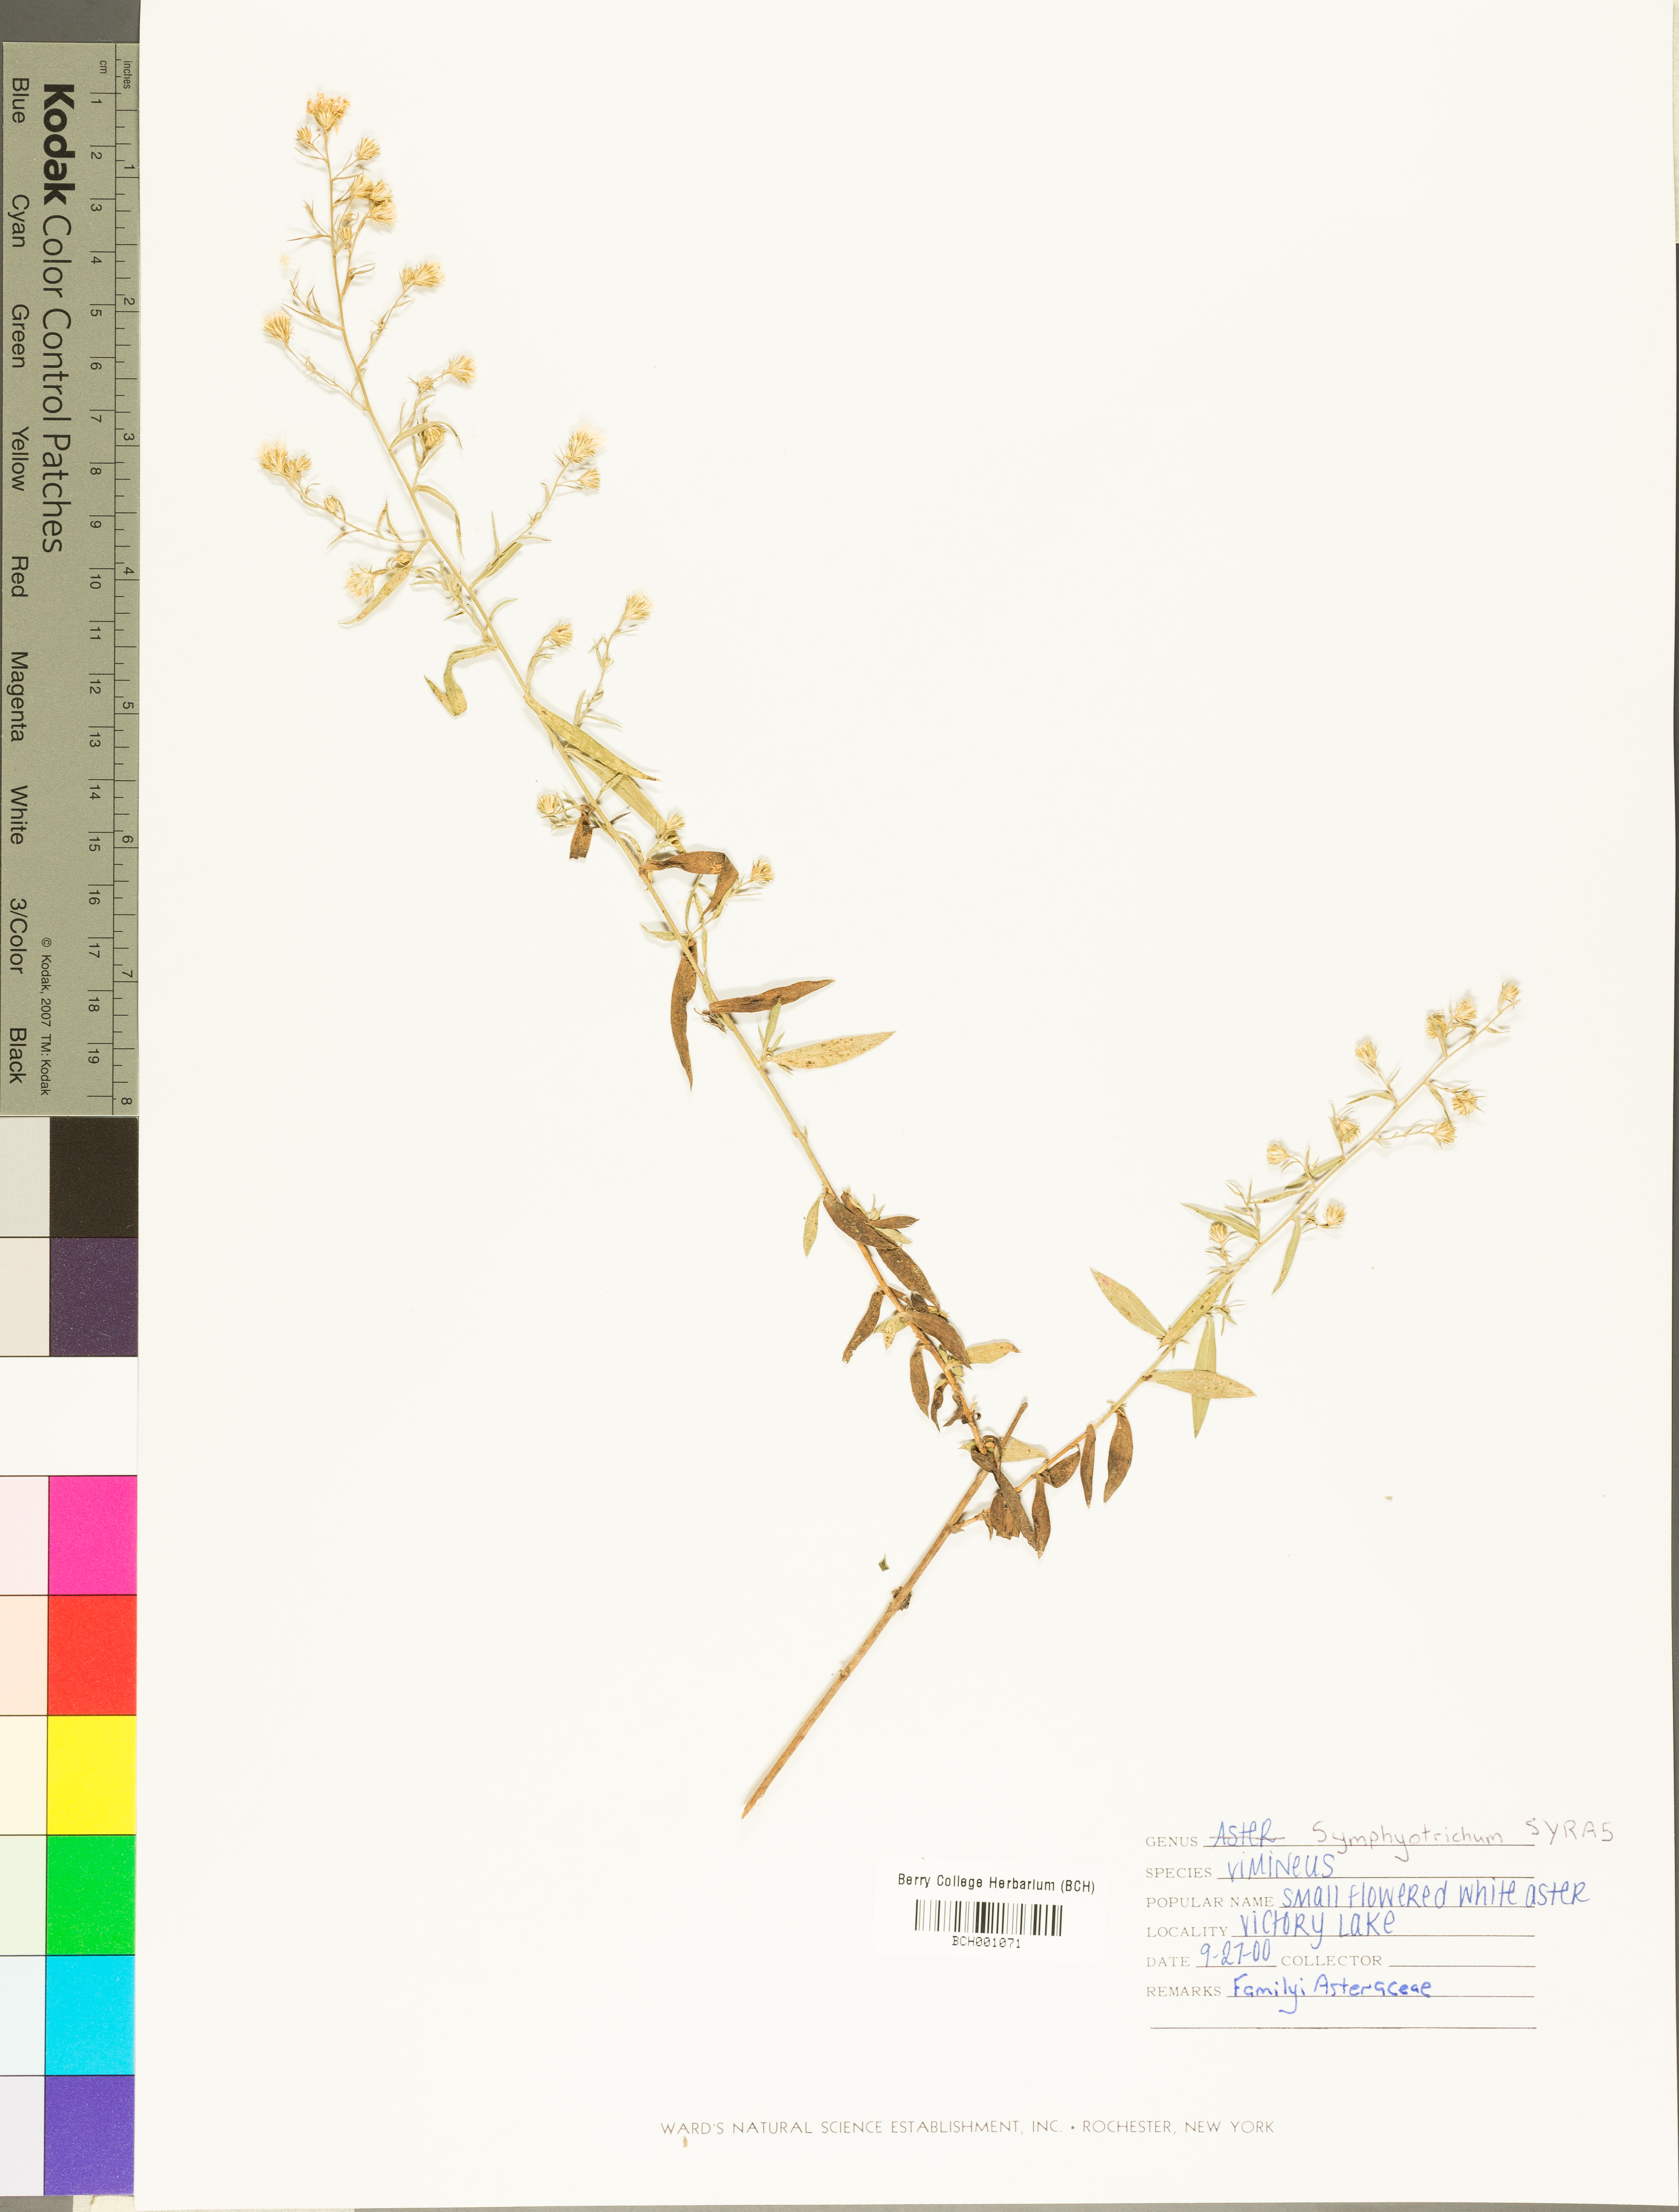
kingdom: Plantae
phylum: Tracheophyta
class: Magnoliopsida
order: Asterales
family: Asteraceae
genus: Symphyotrichum
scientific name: Symphyotrichum racemosum
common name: Small white aster
